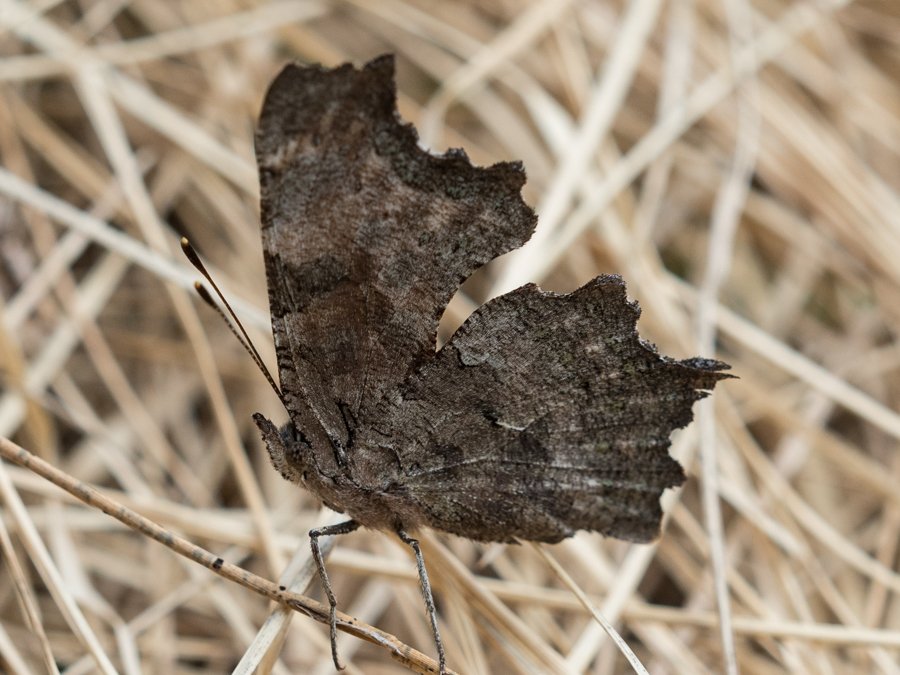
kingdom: Animalia
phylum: Arthropoda
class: Insecta
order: Lepidoptera
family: Nymphalidae
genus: Polygonia
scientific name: Polygonia faunus
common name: Green Comma
